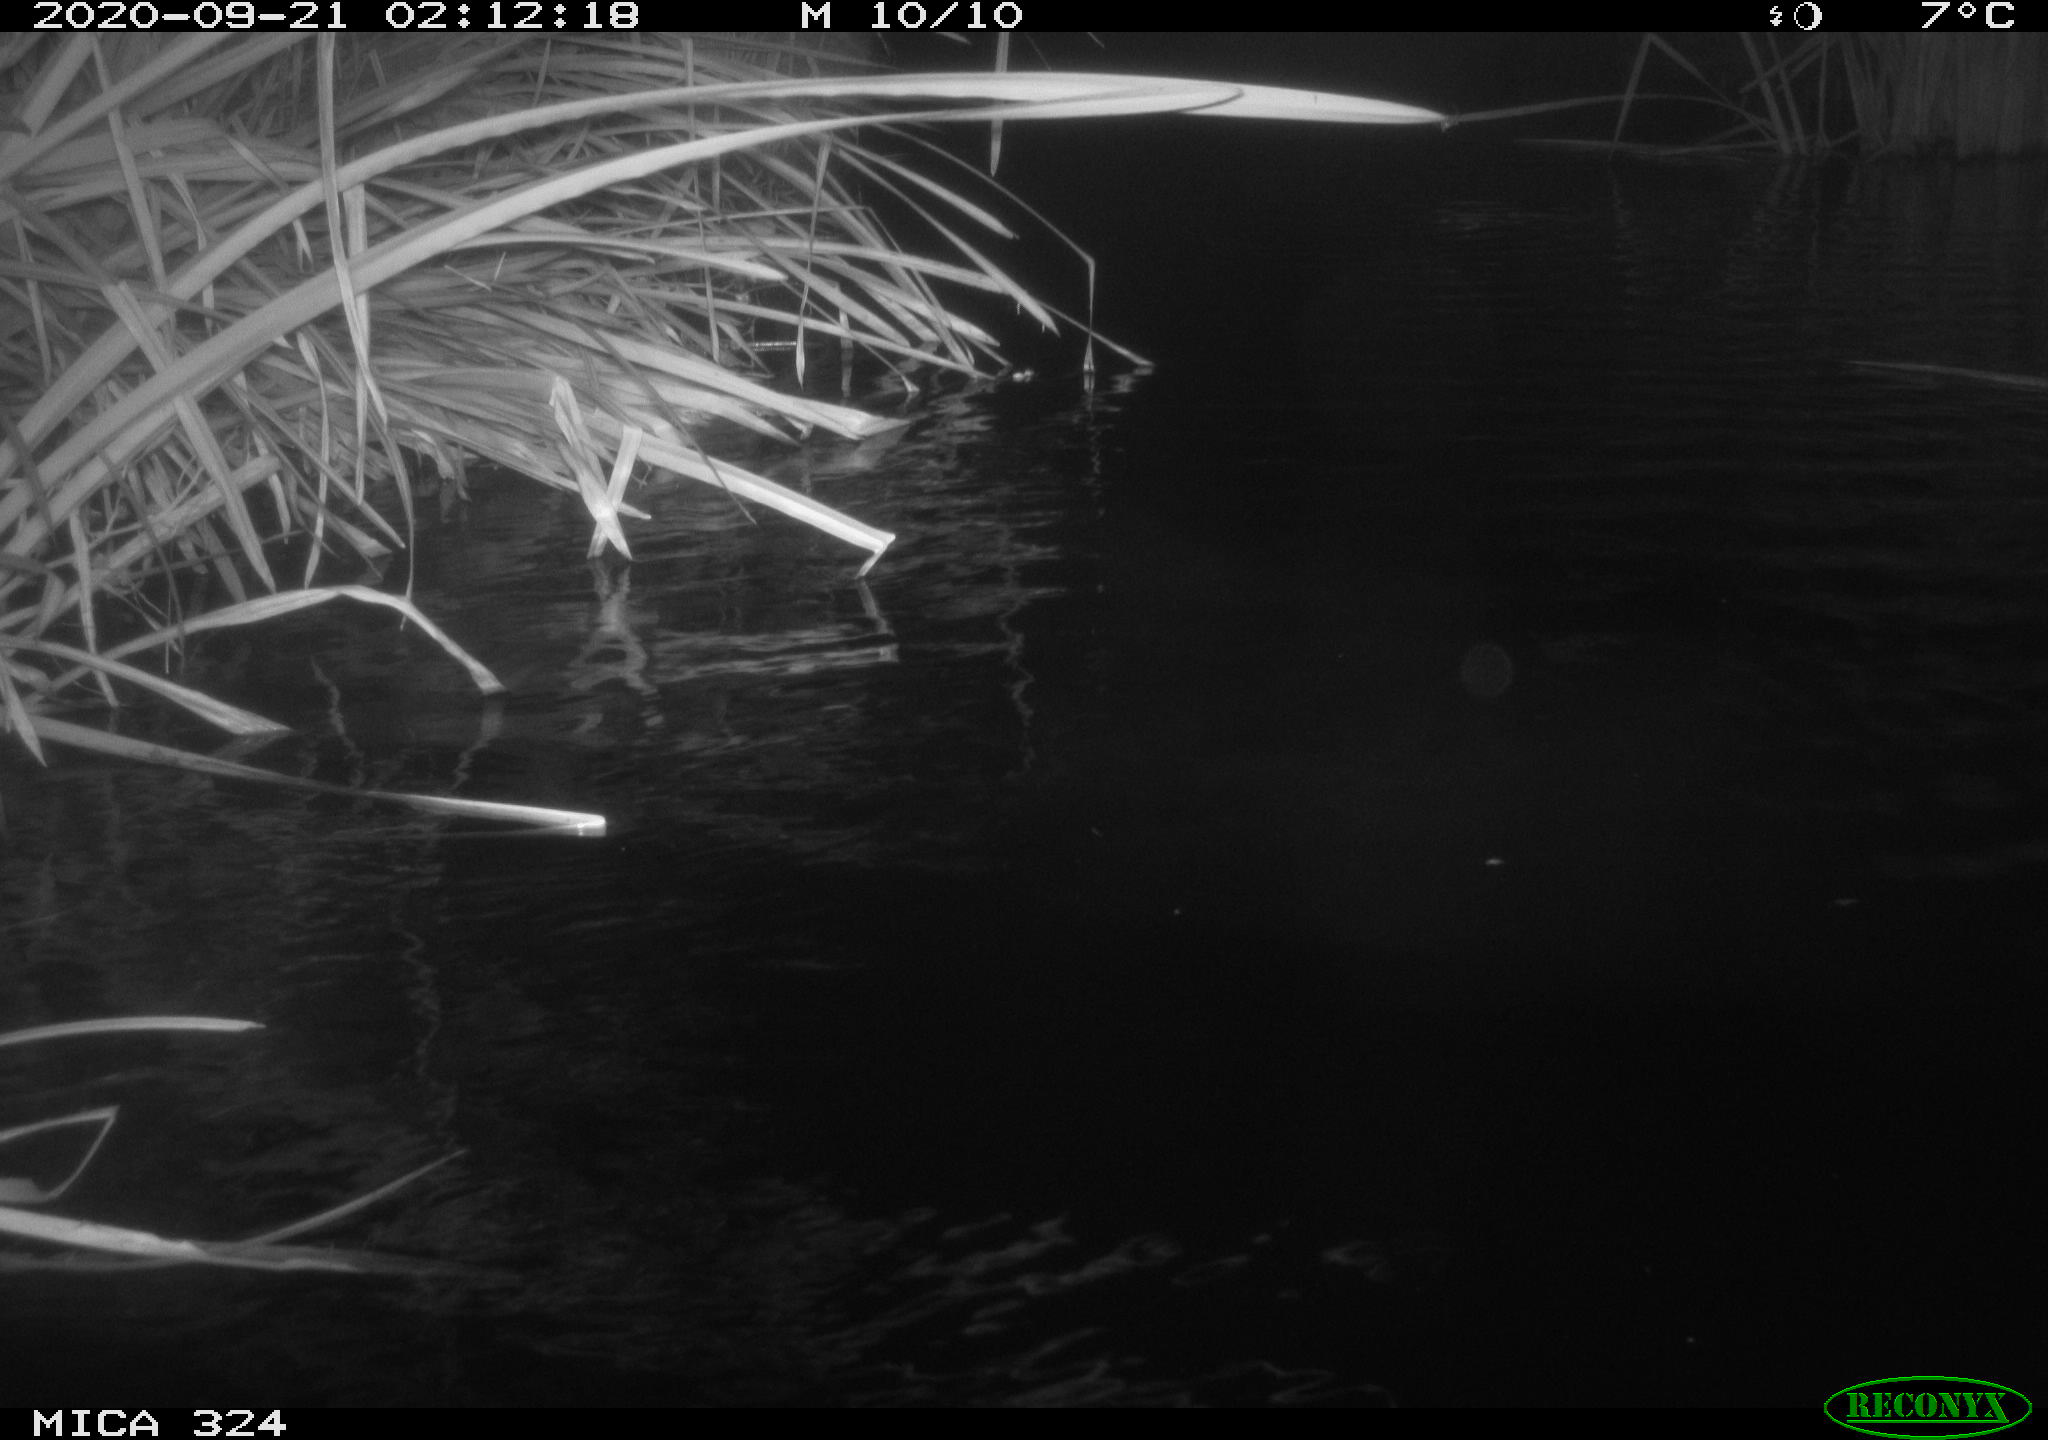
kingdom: Animalia
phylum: Chordata
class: Mammalia
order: Rodentia
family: Cricetidae
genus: Ondatra
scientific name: Ondatra zibethicus
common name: Muskrat
